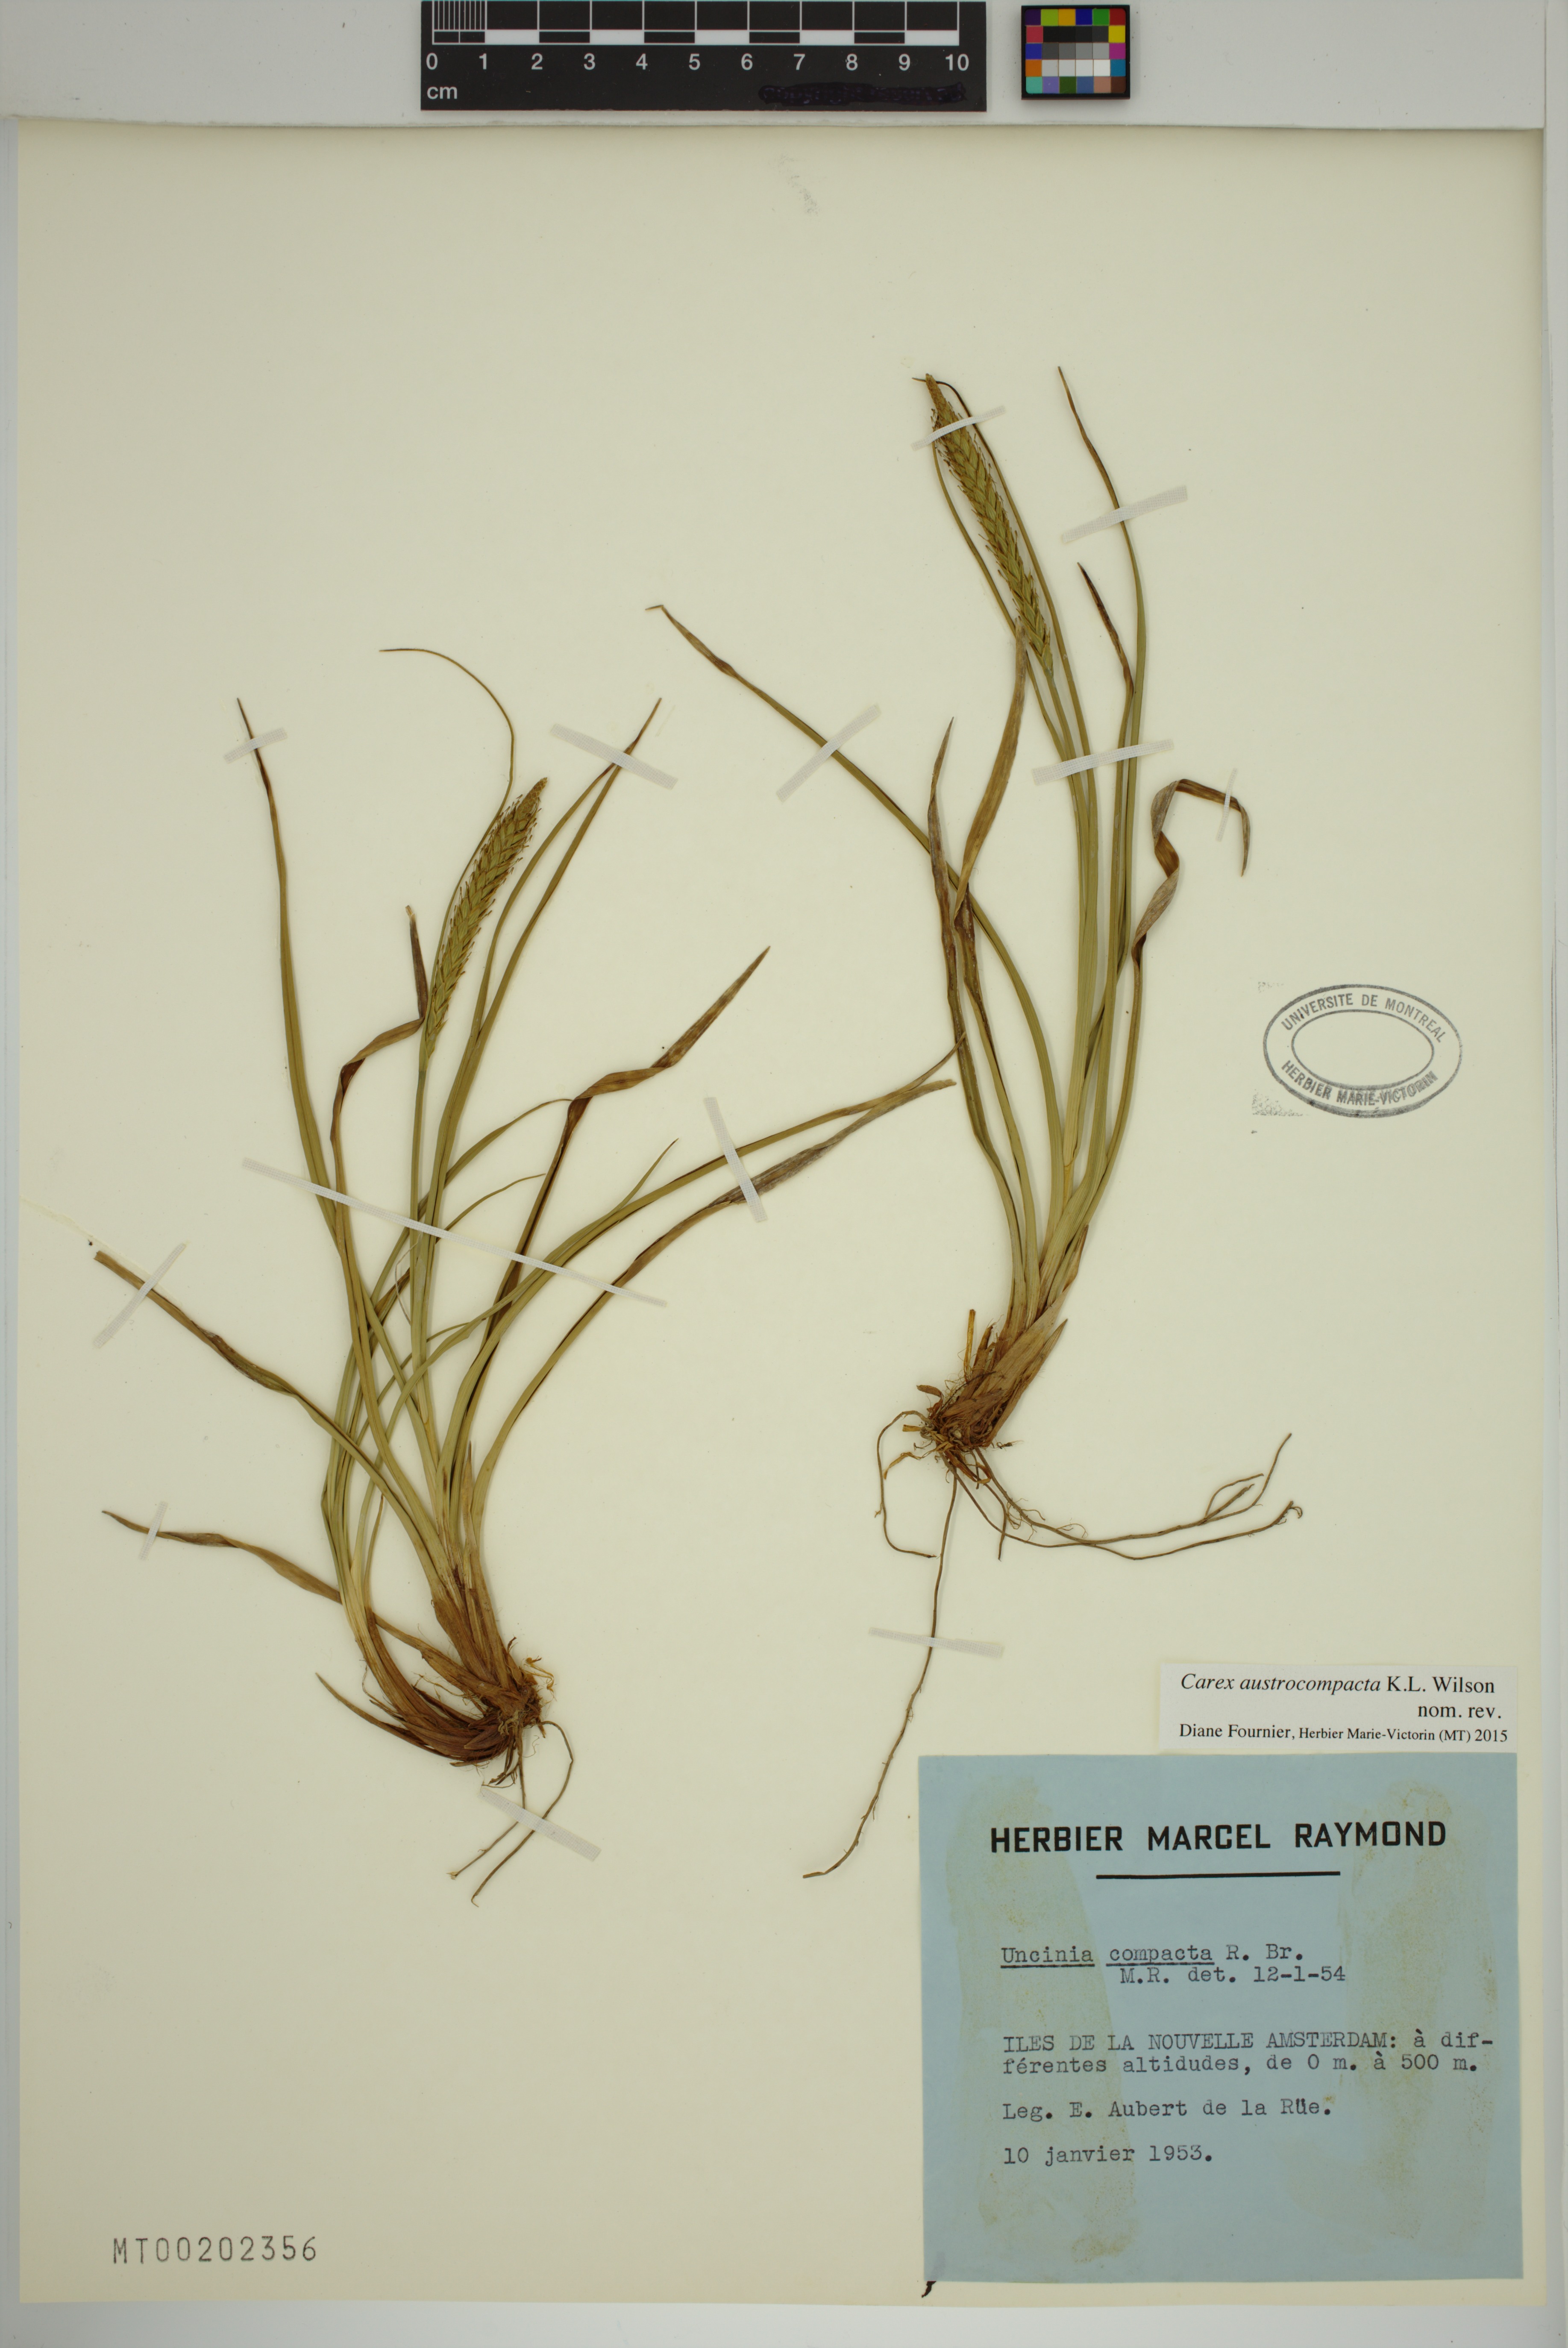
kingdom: Plantae
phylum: Tracheophyta
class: Liliopsida
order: Poales
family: Cyperaceae
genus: Carex
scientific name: Carex austrocompacta
